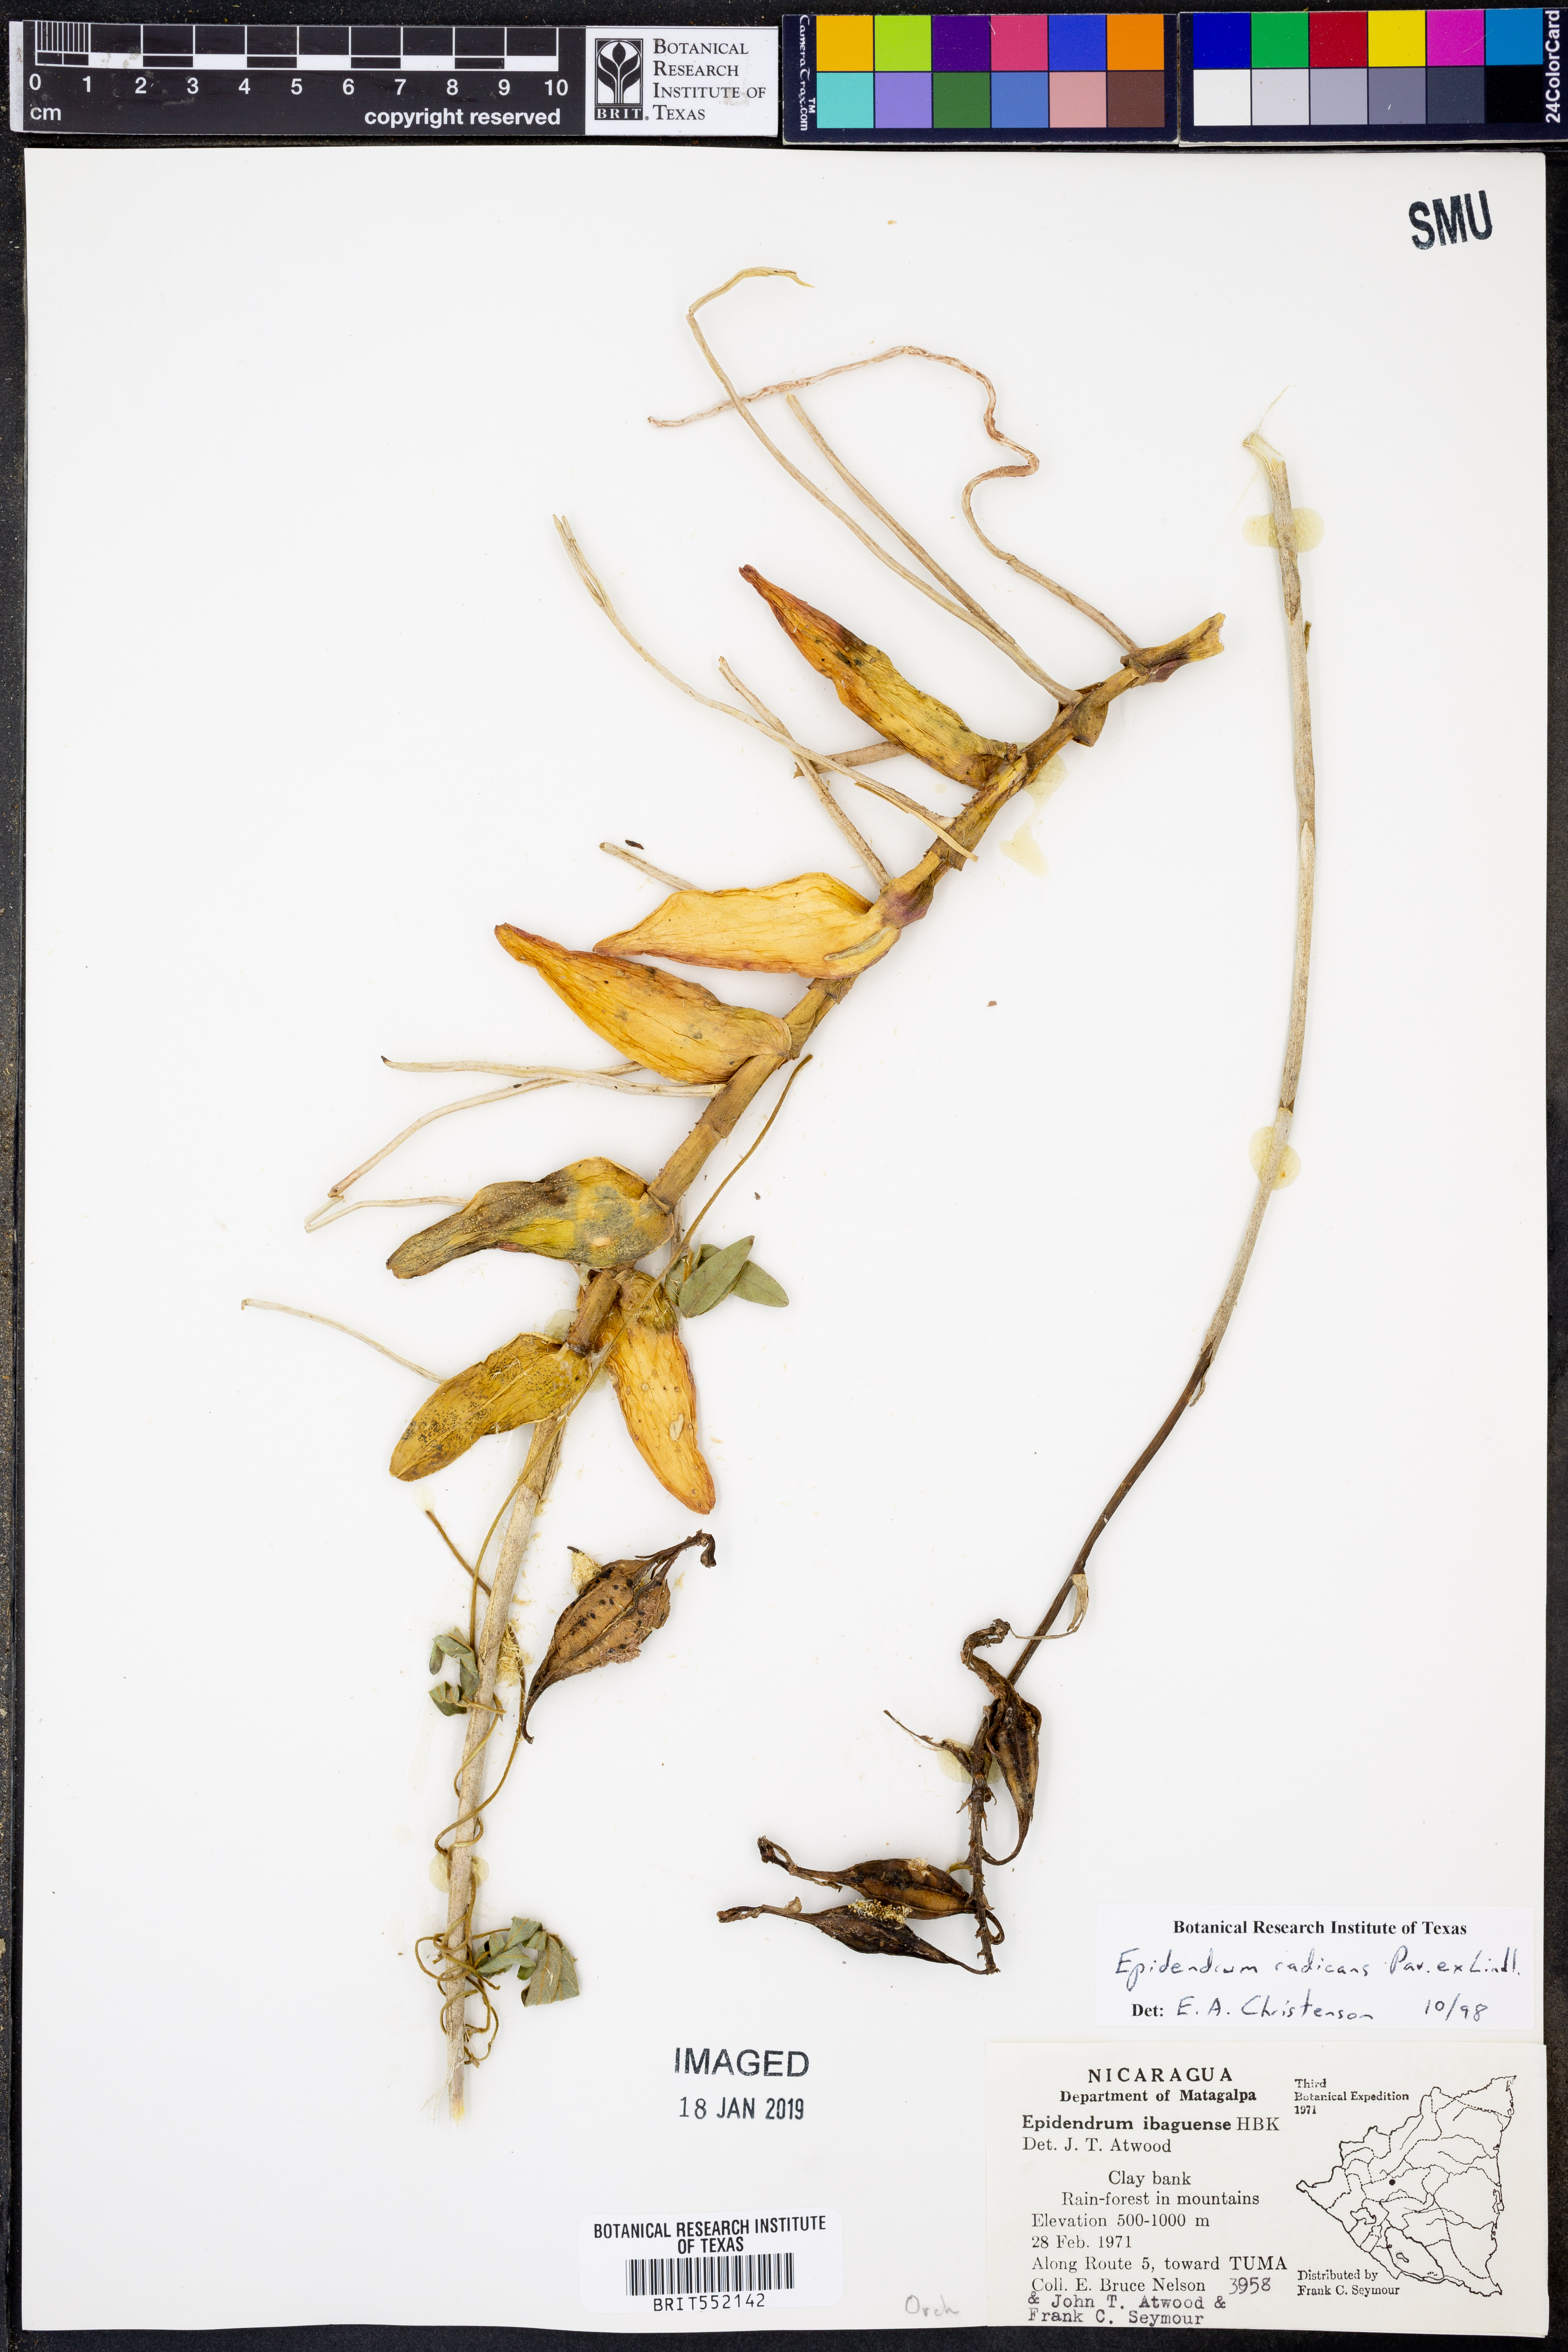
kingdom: Plantae
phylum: Tracheophyta
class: Liliopsida
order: Asparagales
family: Orchidaceae
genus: Epidendrum
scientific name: Epidendrum radicans
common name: Fire star orchid
